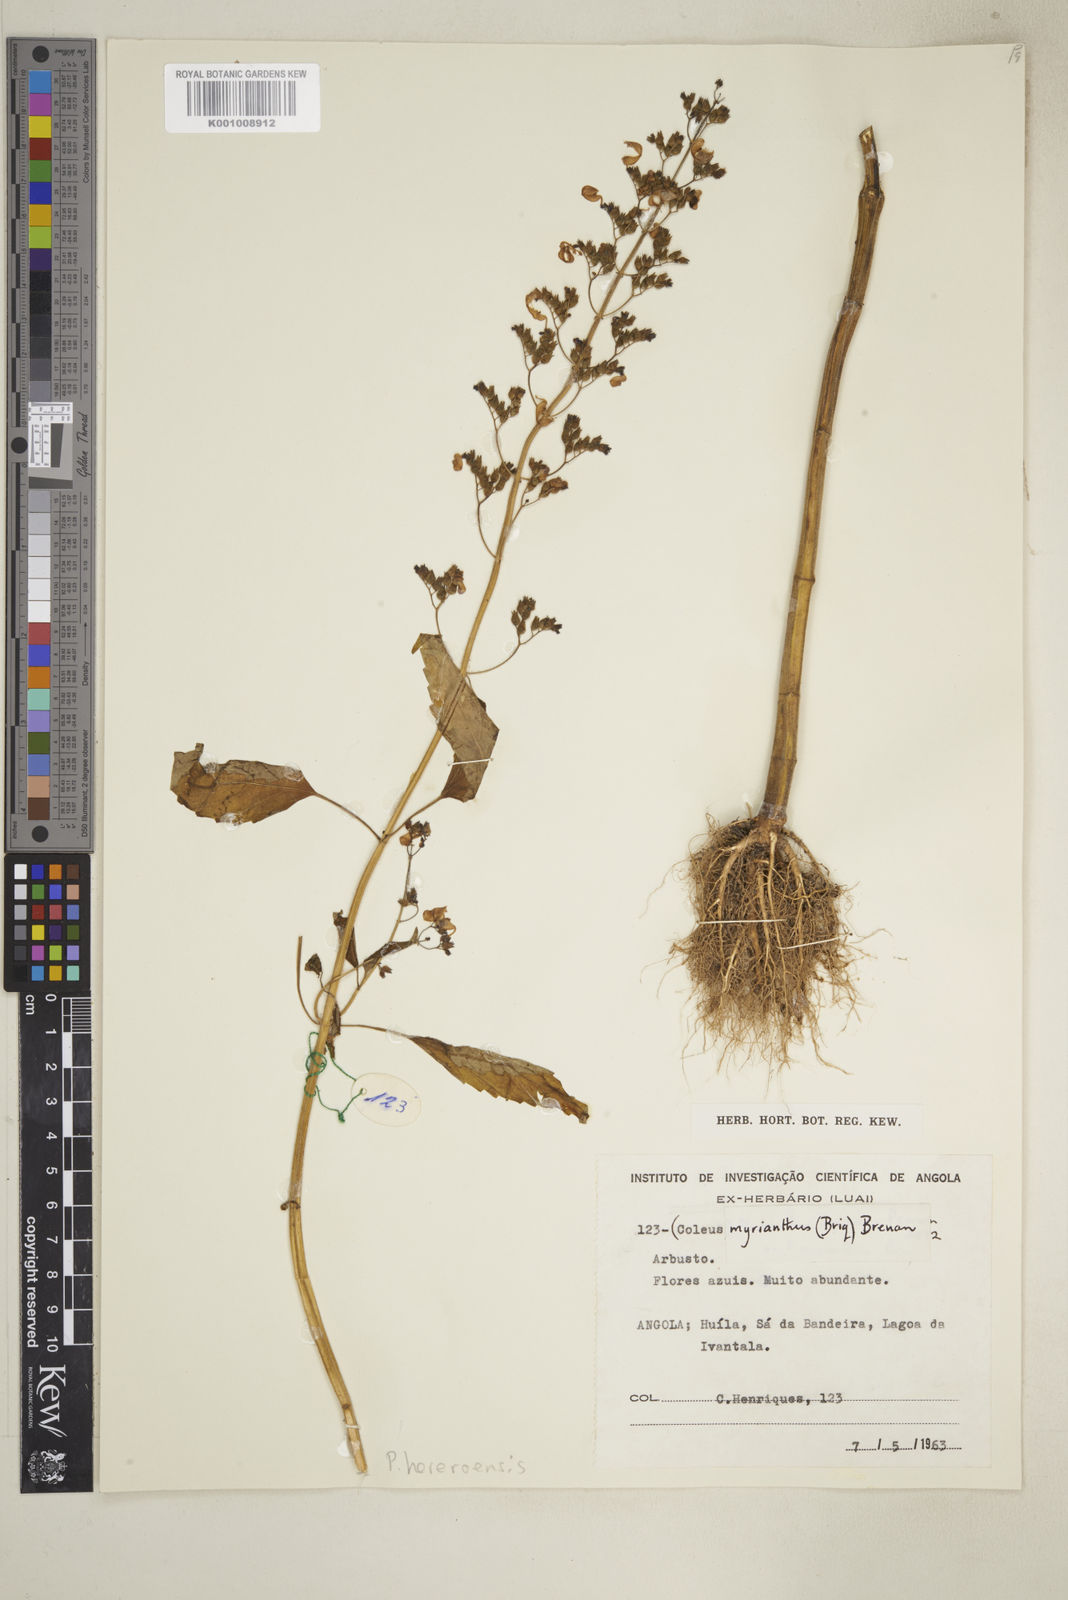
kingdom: Plantae
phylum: Tracheophyta
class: Magnoliopsida
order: Lamiales
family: Lamiaceae
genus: Coleus
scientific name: Coleus hereroensis
